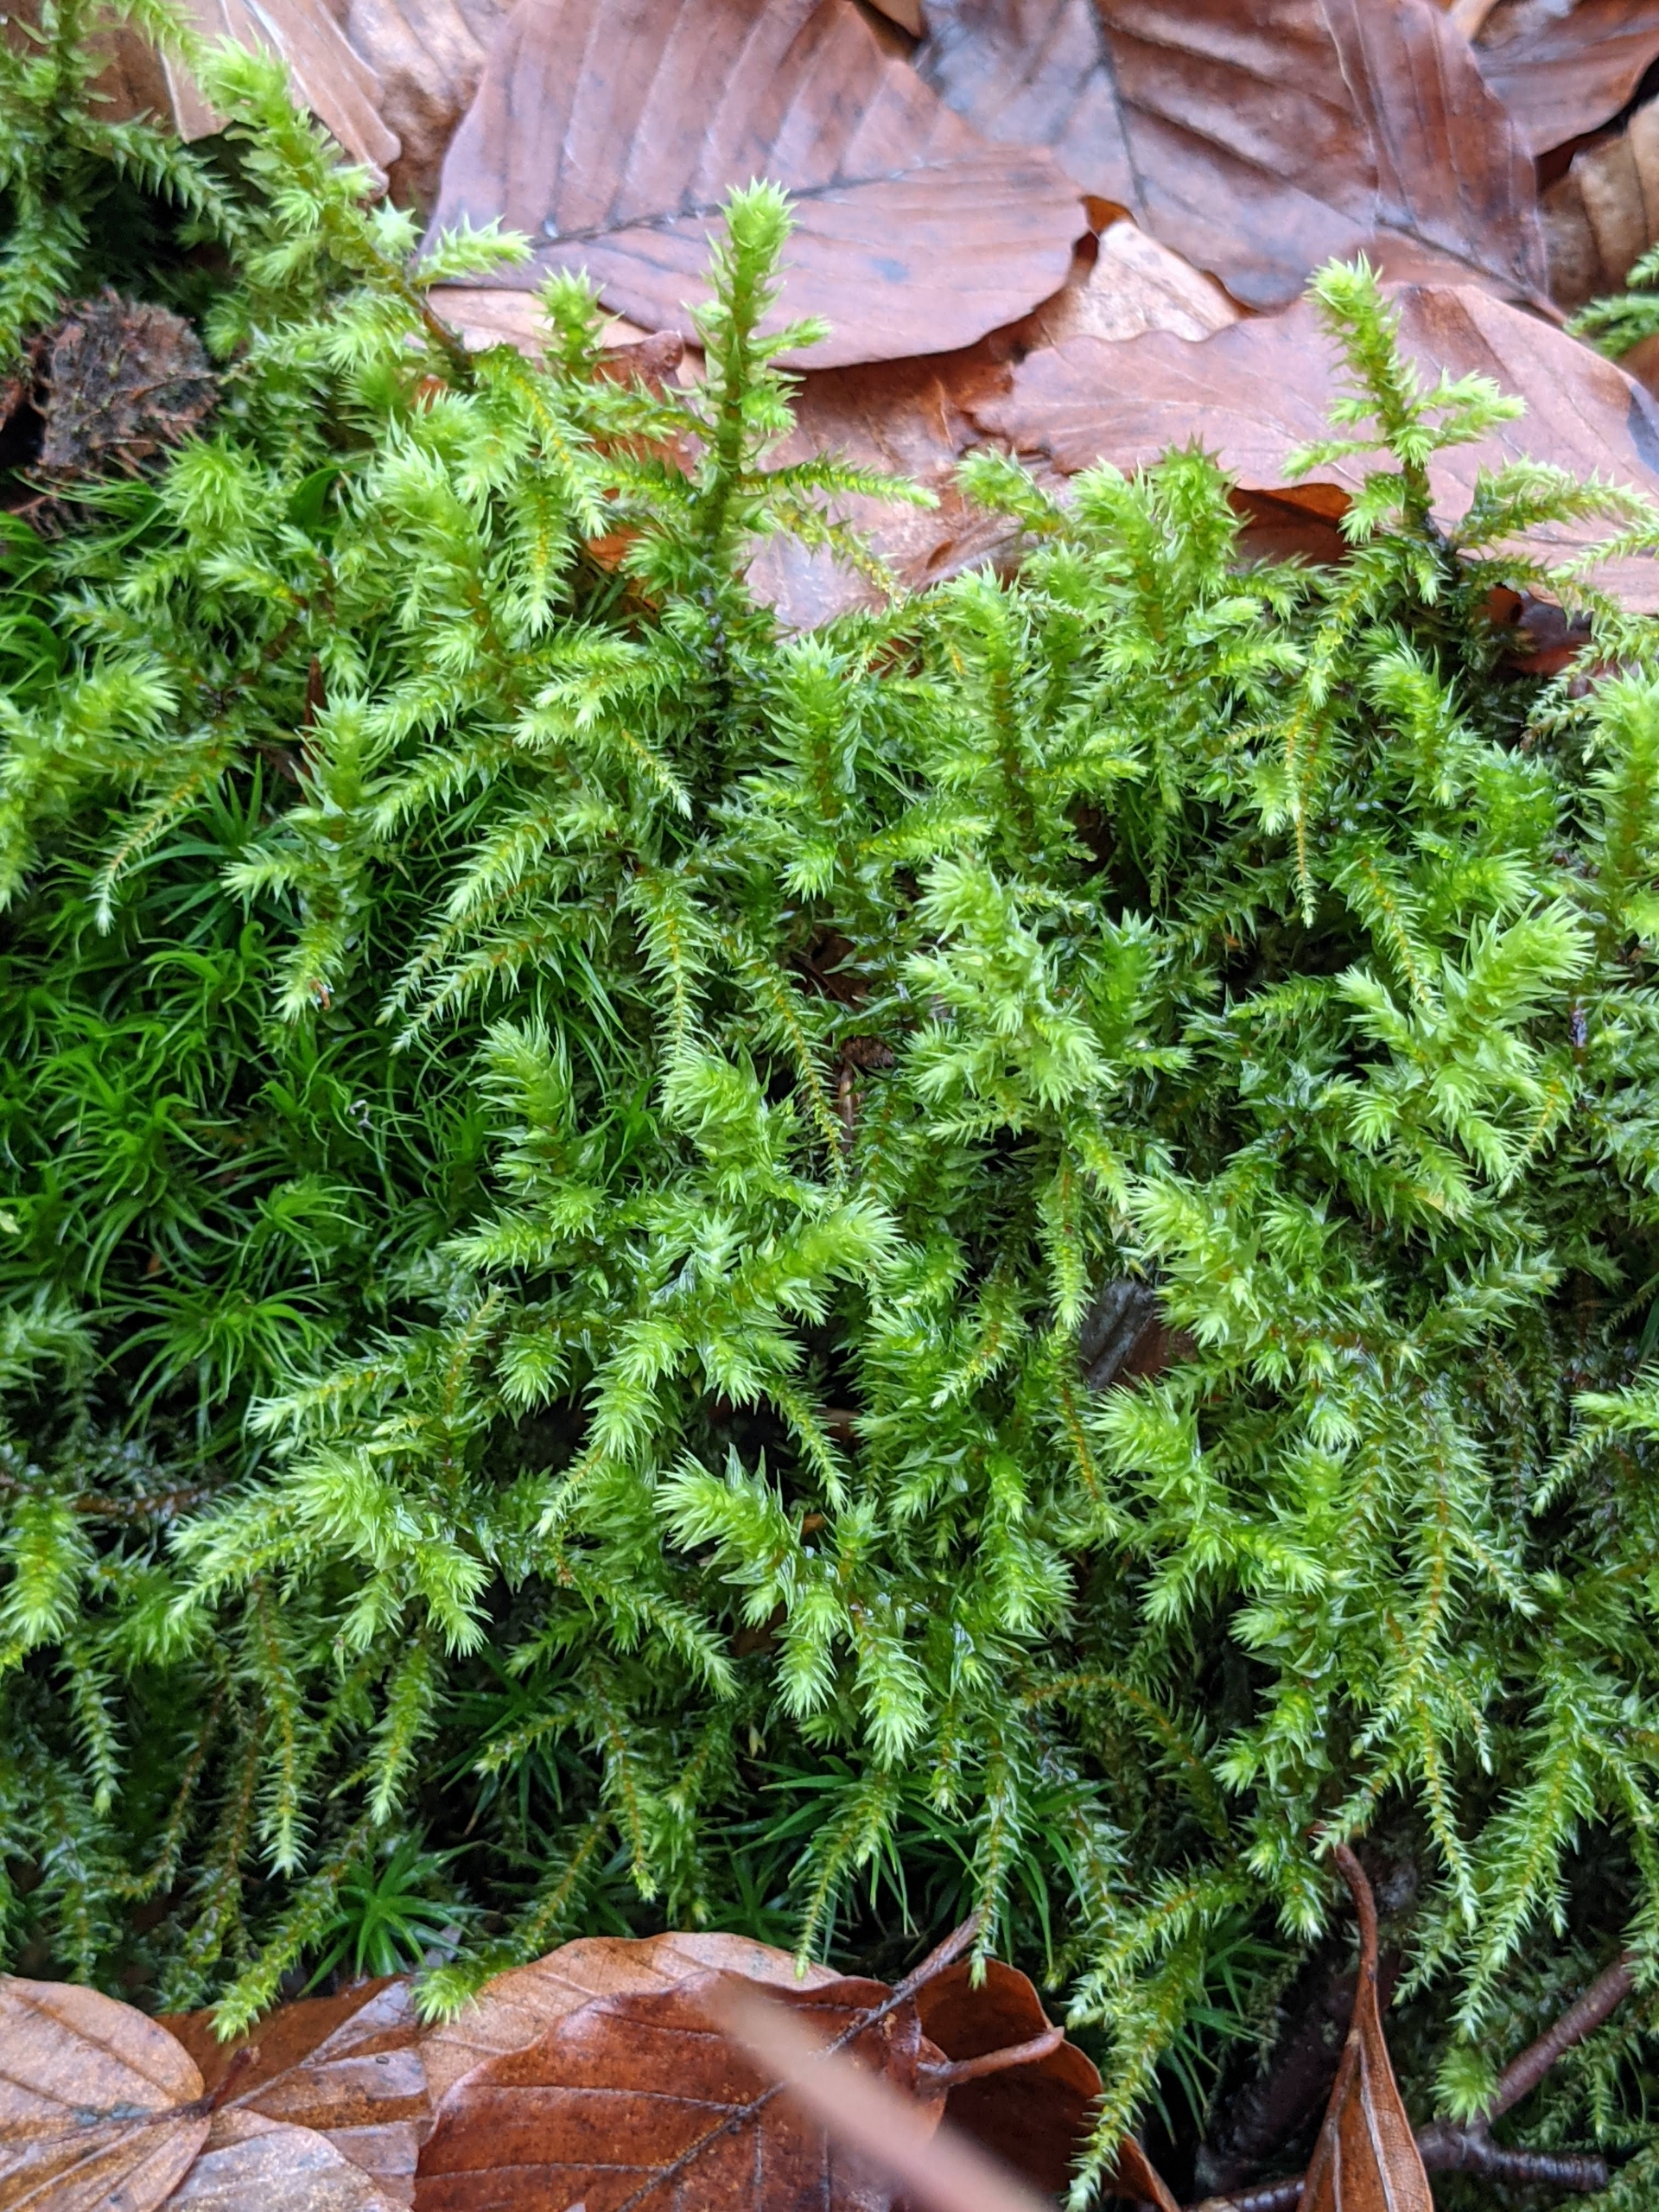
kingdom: Plantae
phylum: Bryophyta
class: Bryopsida
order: Hypnales
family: Hylocomiaceae
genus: Hylocomiadelphus
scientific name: Hylocomiadelphus triquetrus
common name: Stor kransemos
